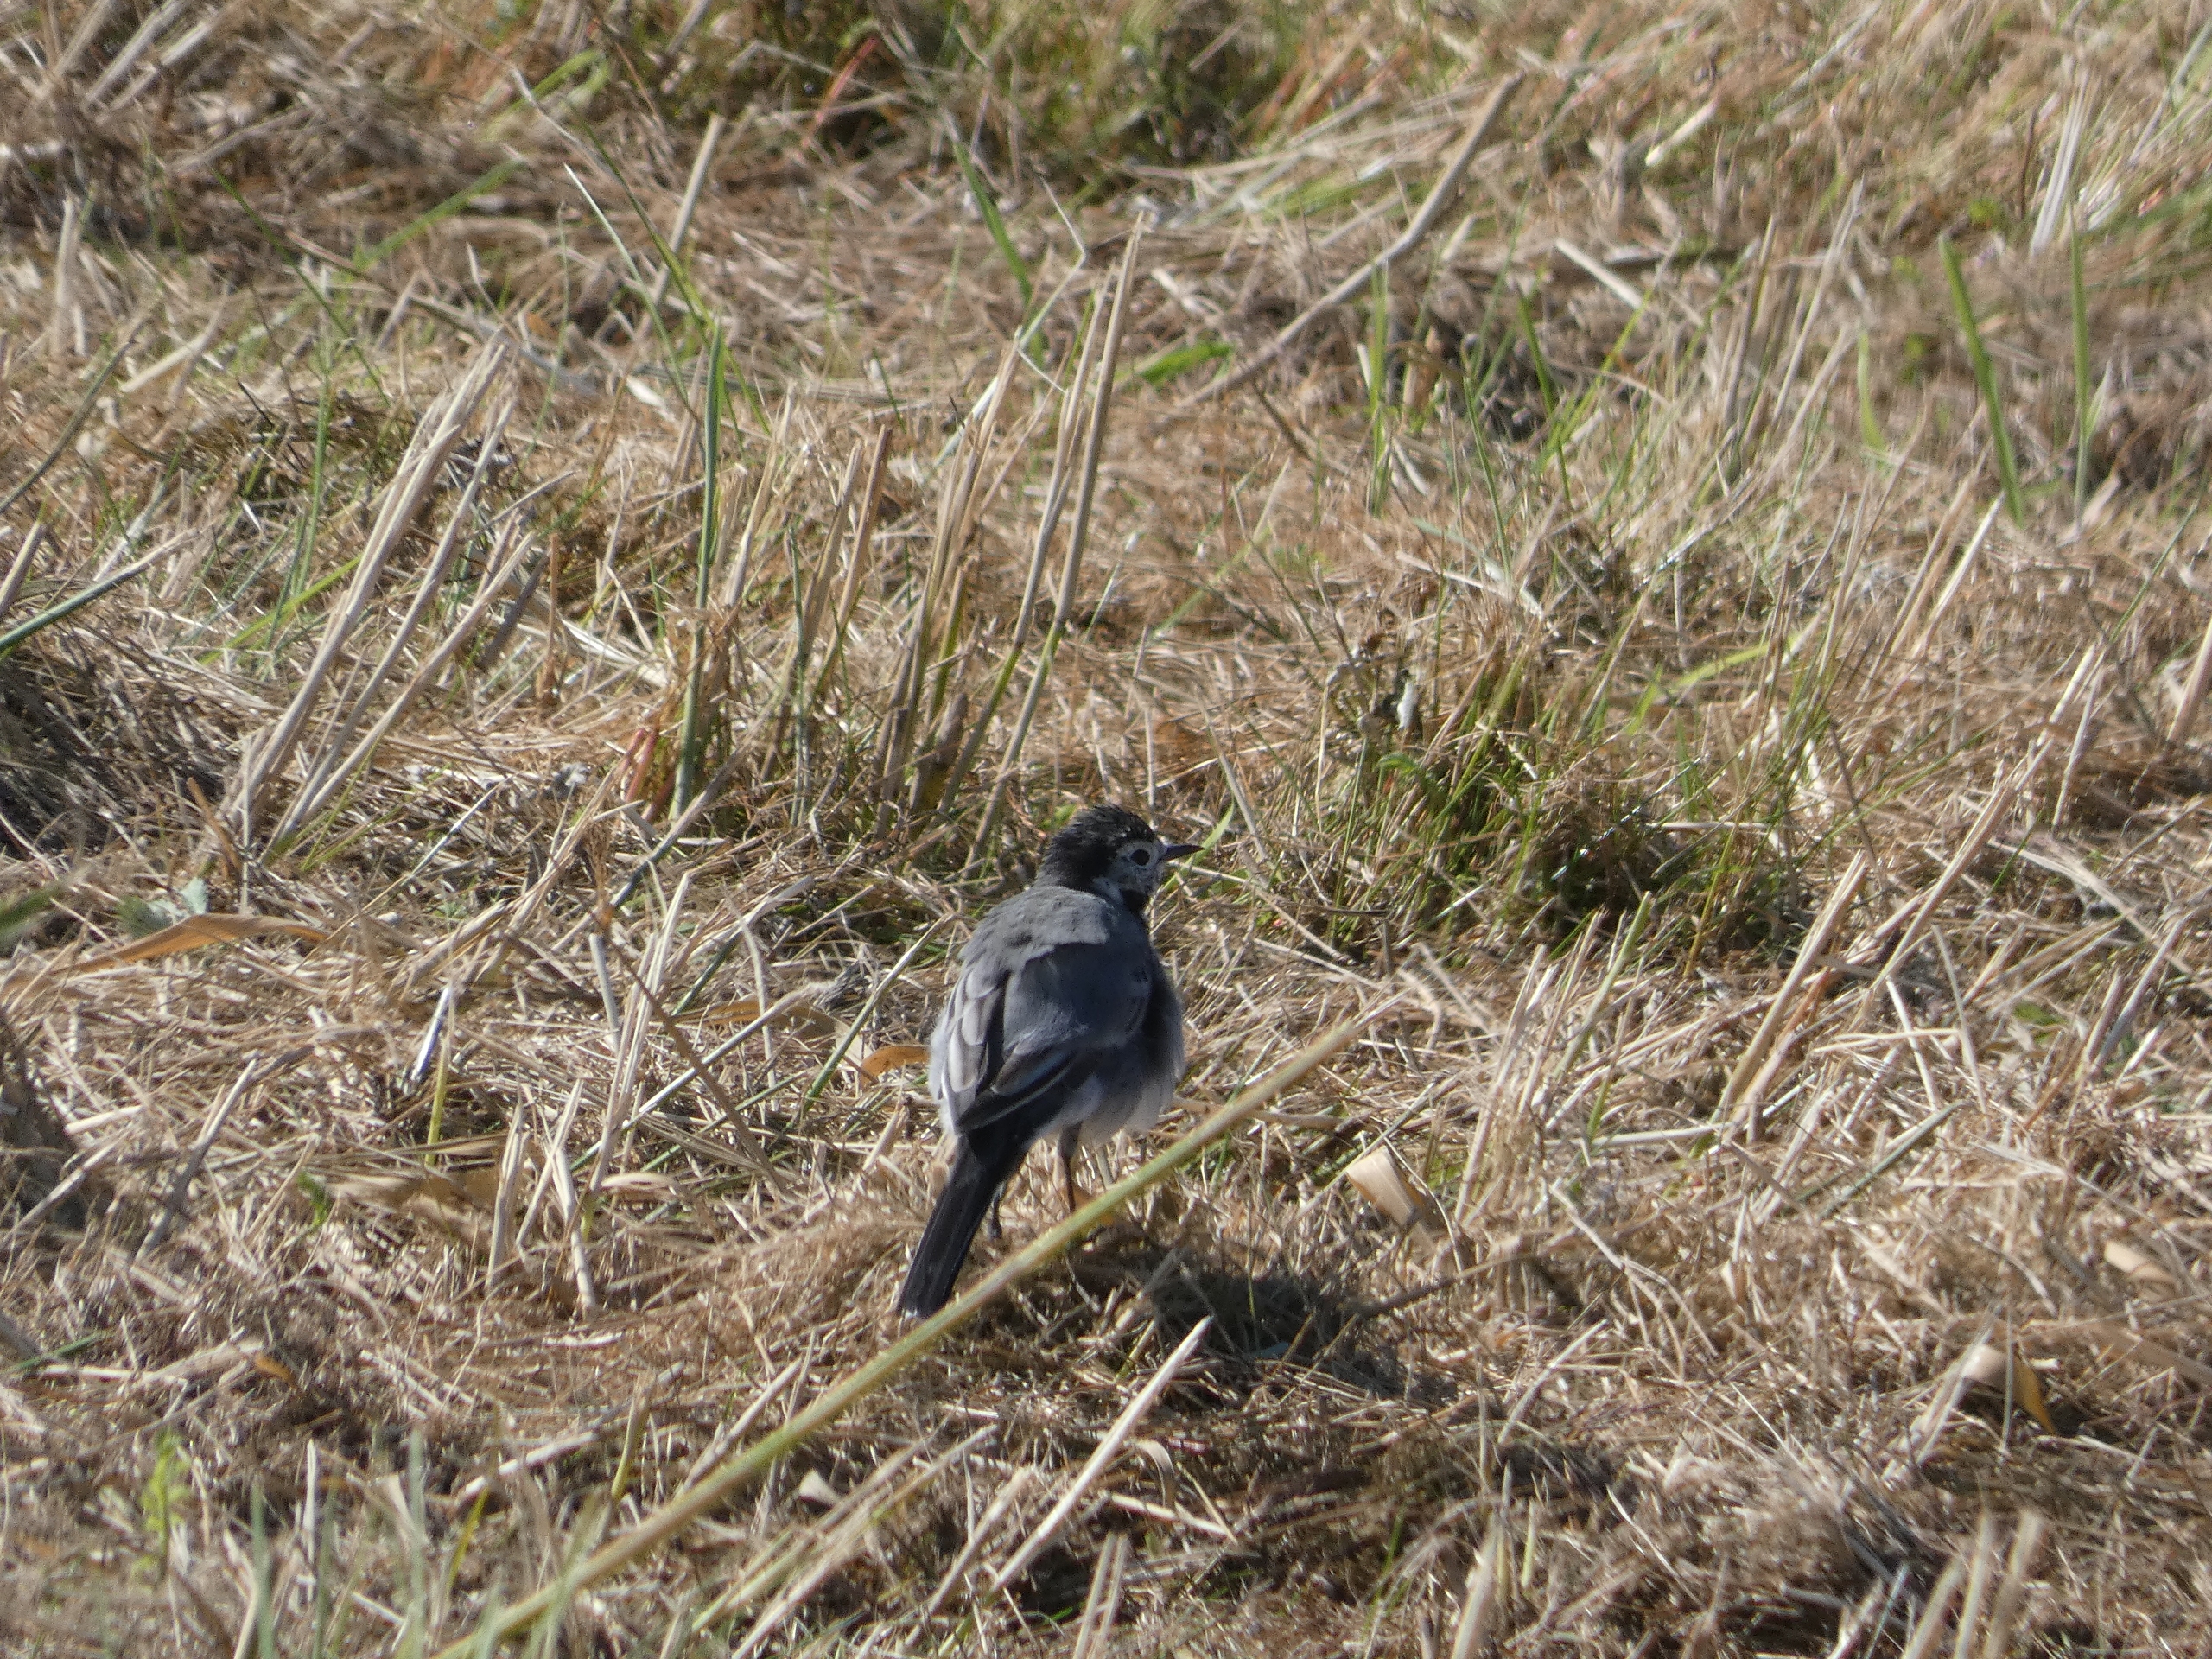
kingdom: Animalia
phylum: Chordata
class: Aves
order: Passeriformes
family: Motacillidae
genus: Motacilla
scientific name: Motacilla alba
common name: Hvid vipstjert
